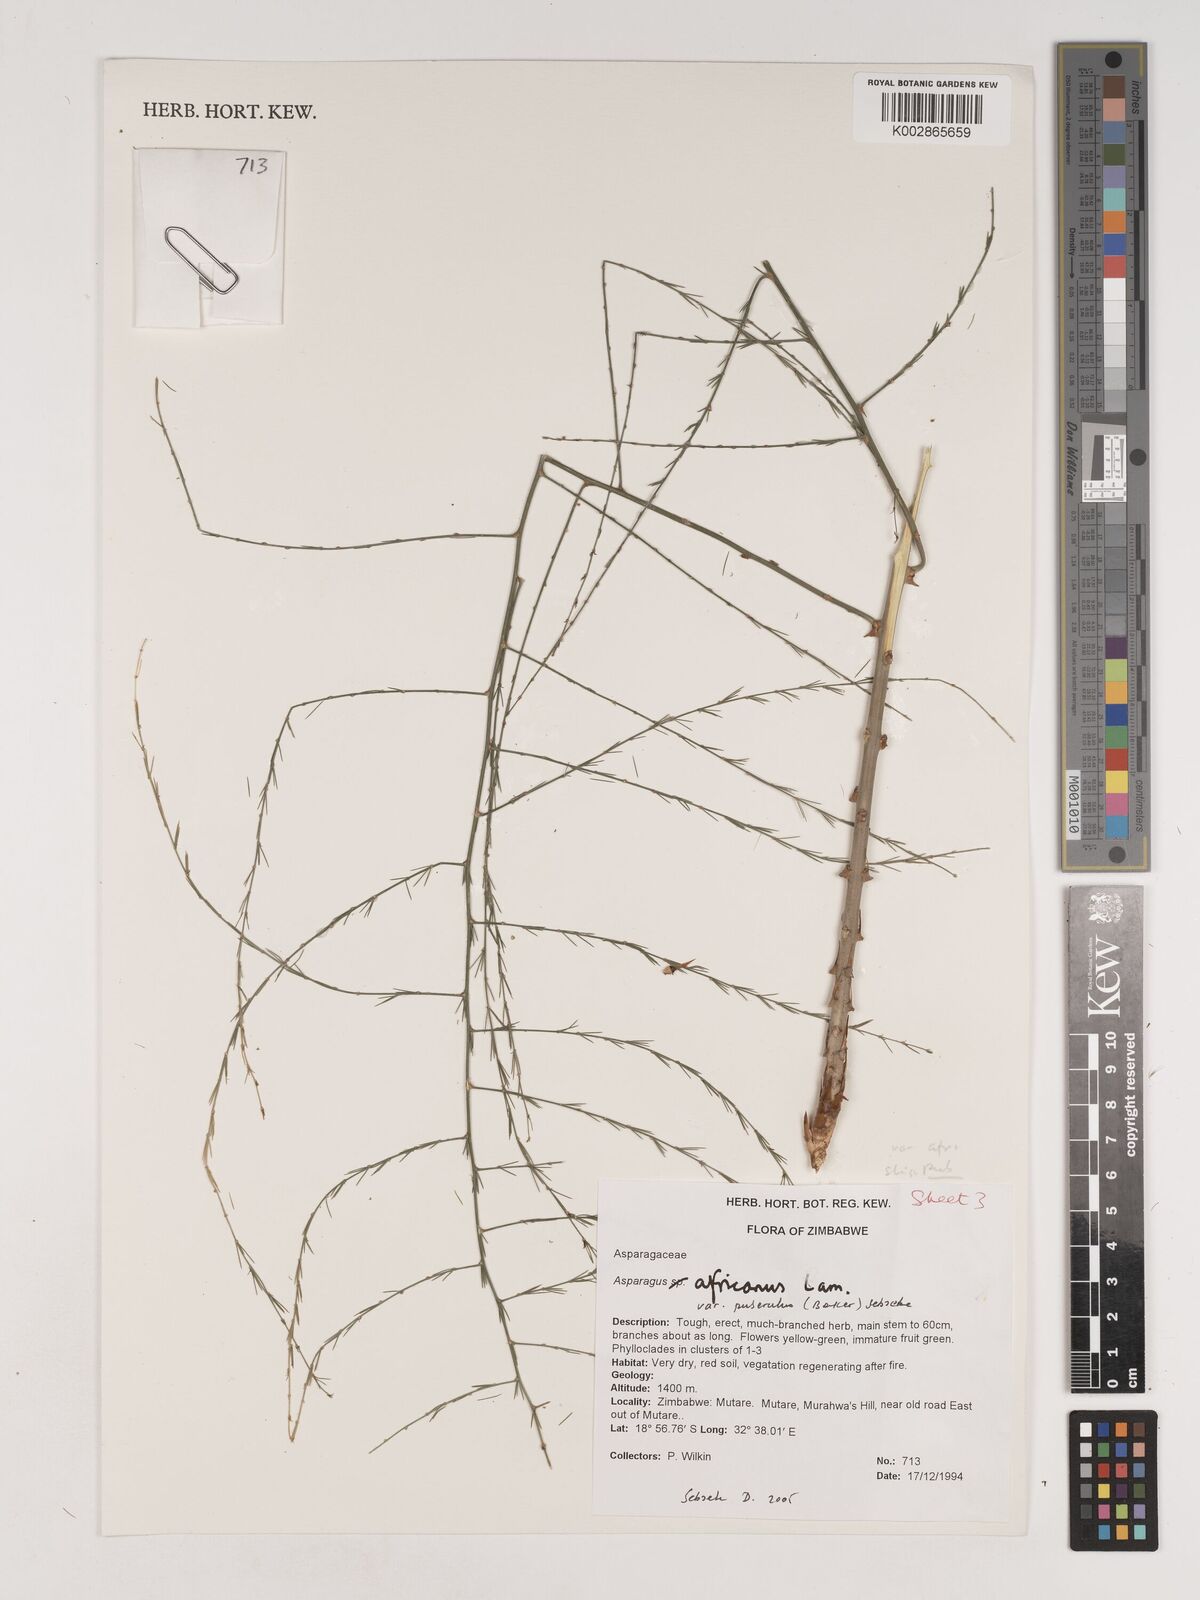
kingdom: Plantae
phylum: Tracheophyta
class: Liliopsida
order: Asparagales
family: Asparagaceae
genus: Asparagus
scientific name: Asparagus africanus
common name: Asparagus-fern
